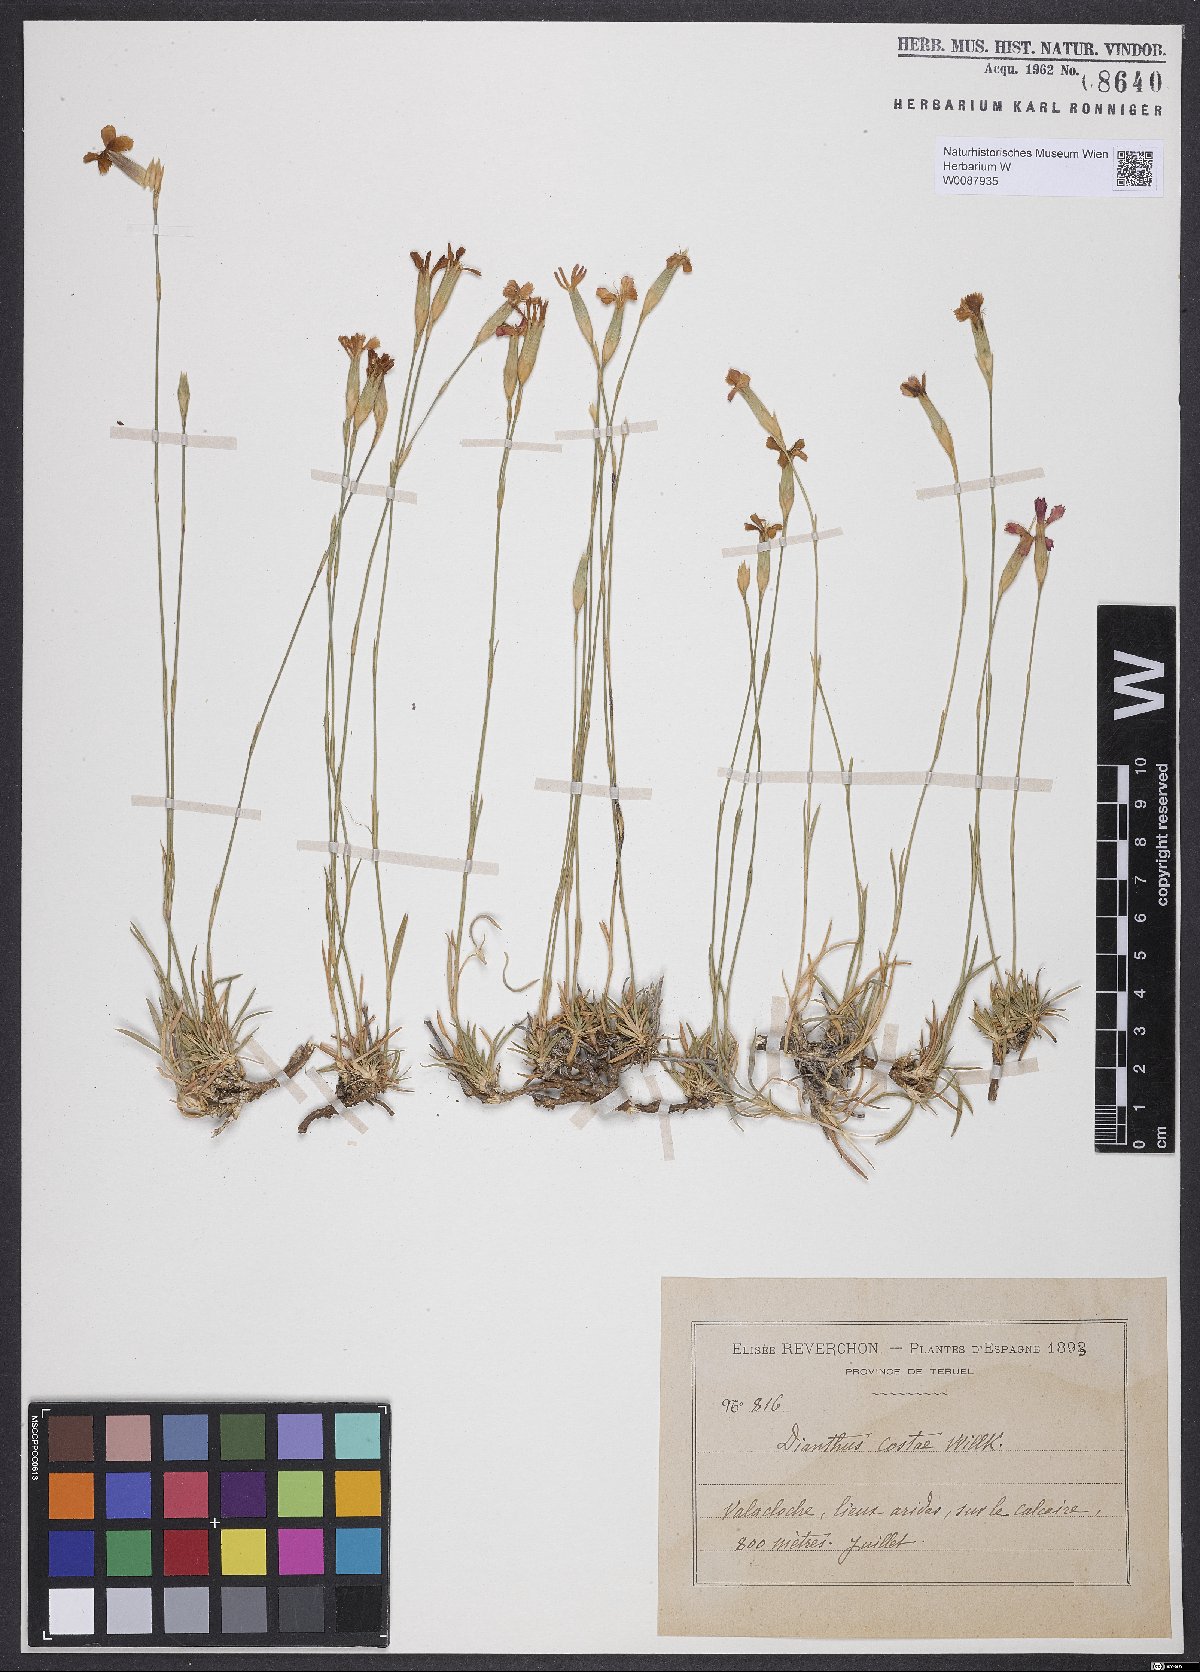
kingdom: Plantae
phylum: Tracheophyta
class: Magnoliopsida
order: Caryophyllales
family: Caryophyllaceae
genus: Dianthus
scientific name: Dianthus algetanus
